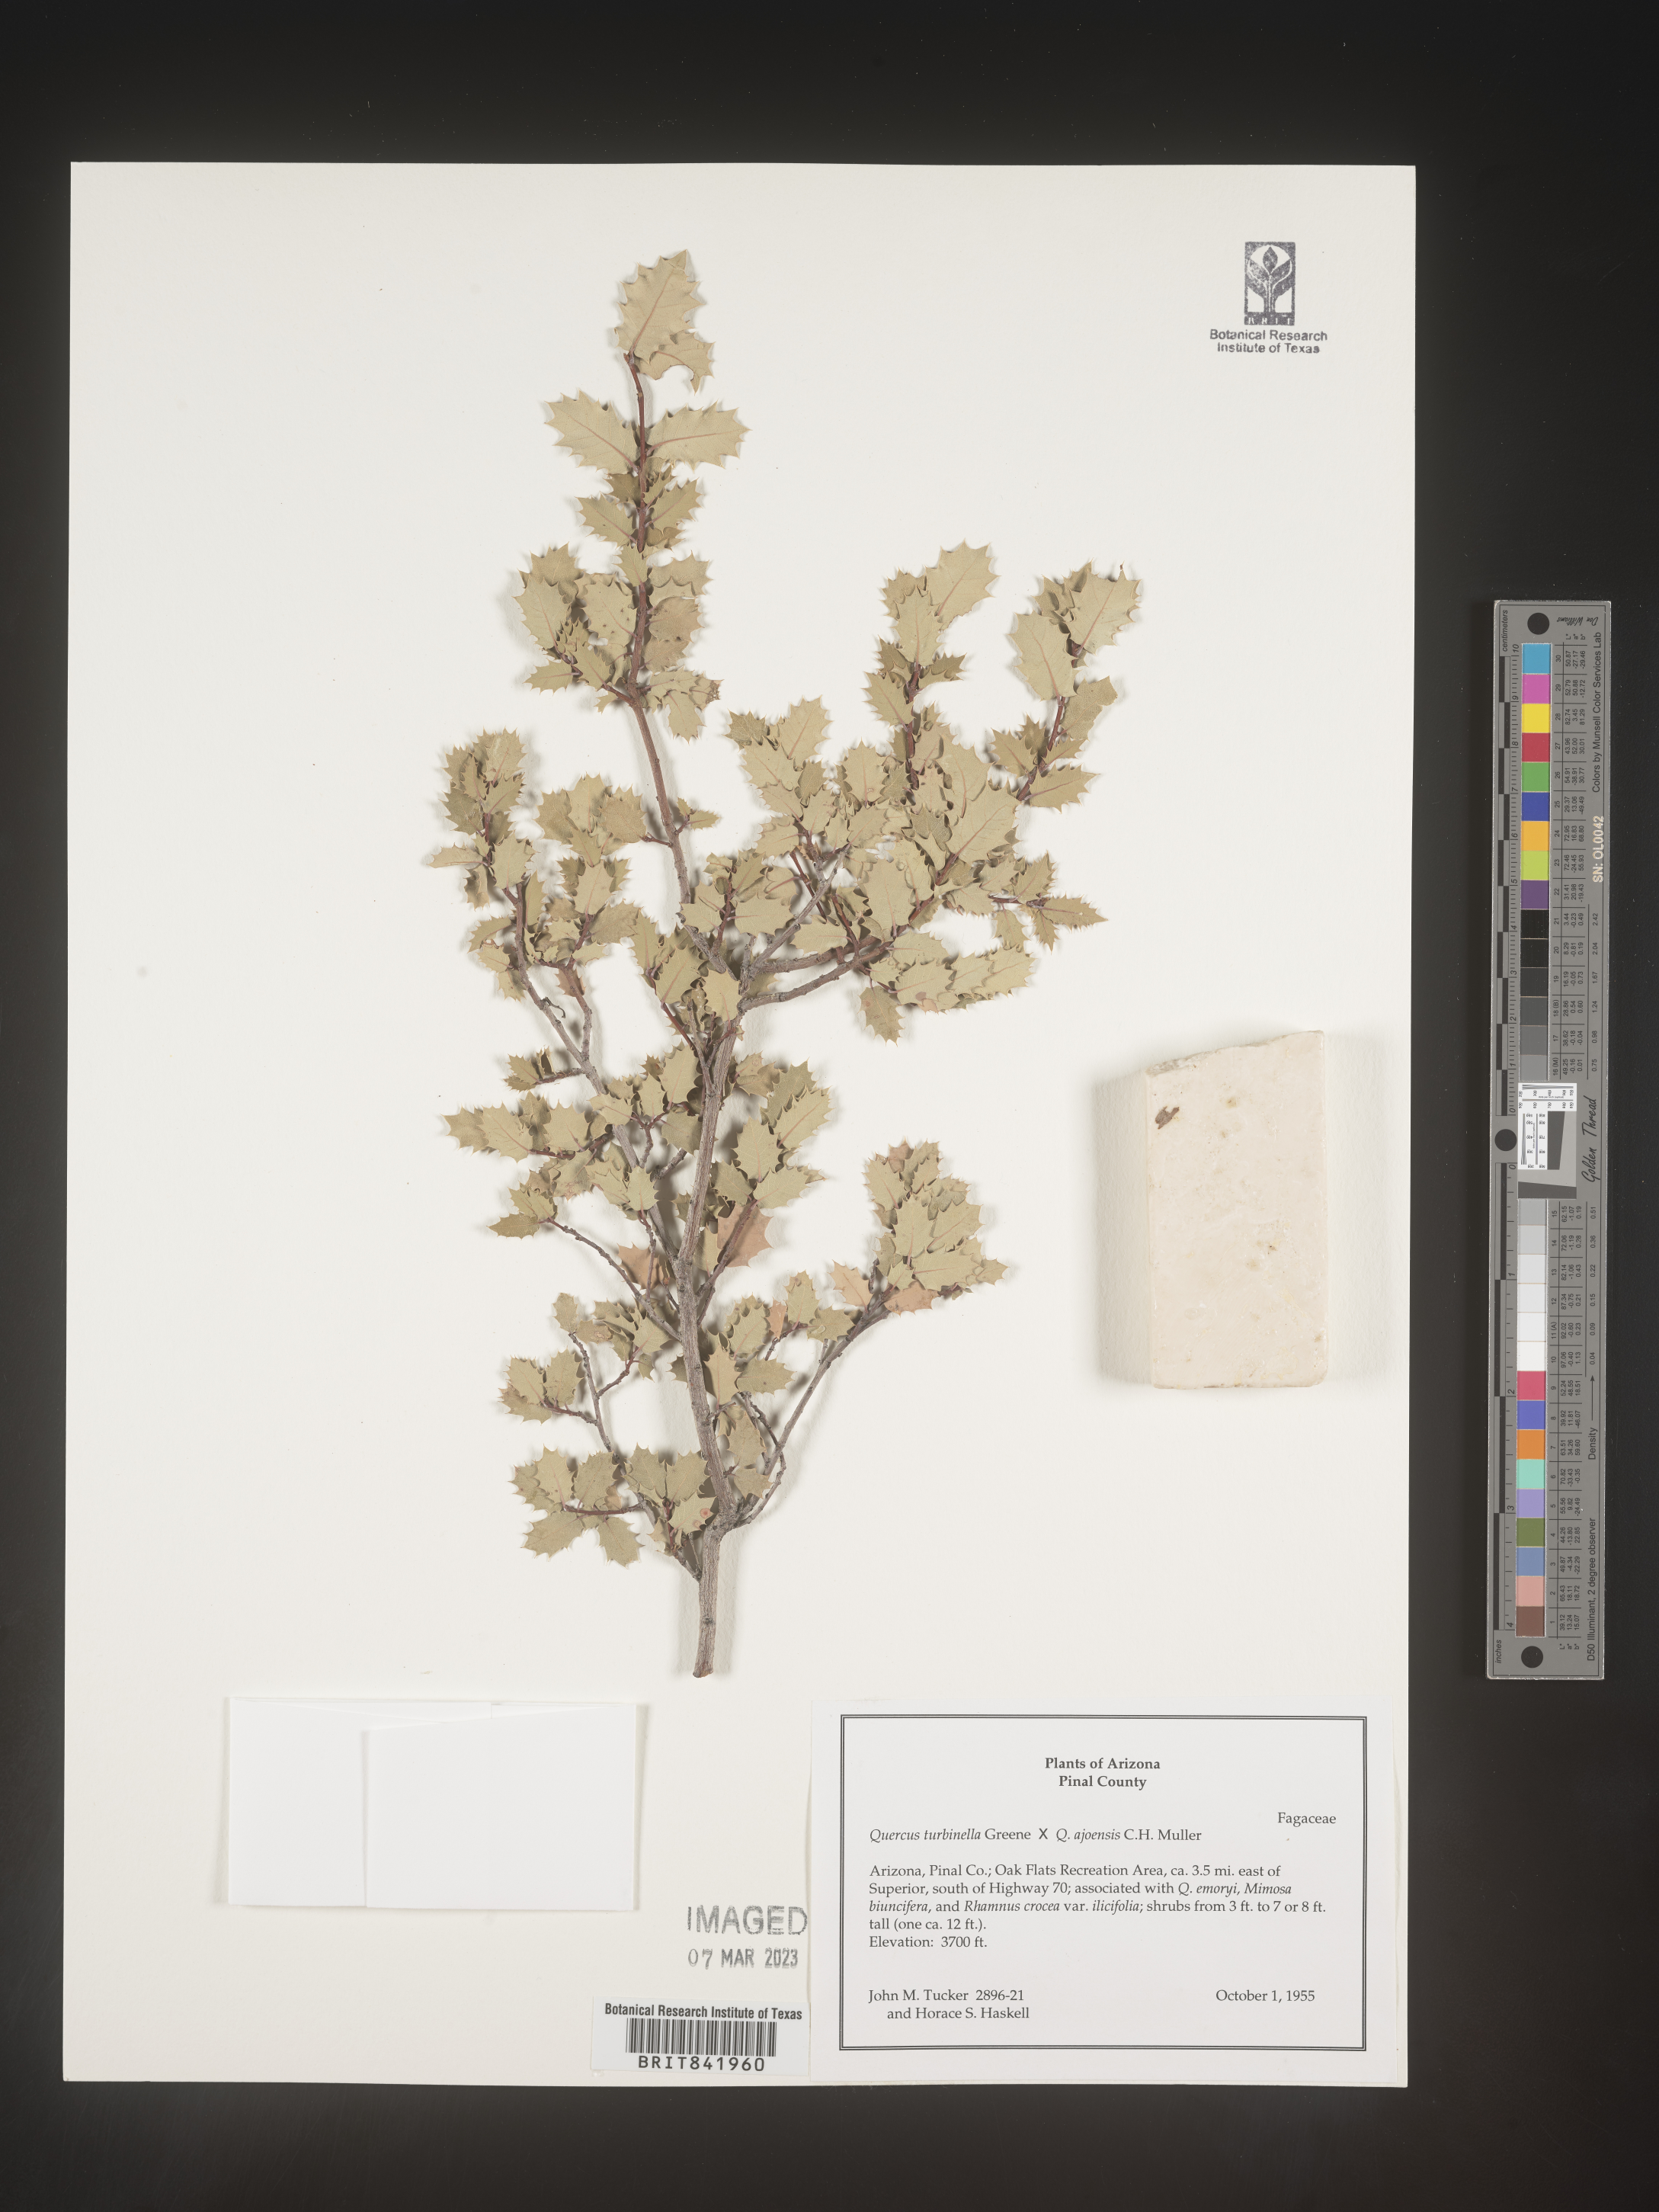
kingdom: Plantae
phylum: Tracheophyta
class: Magnoliopsida
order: Fagales
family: Fagaceae
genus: Quercus
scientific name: Quercus turbinella
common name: Sonoran scrub oak
